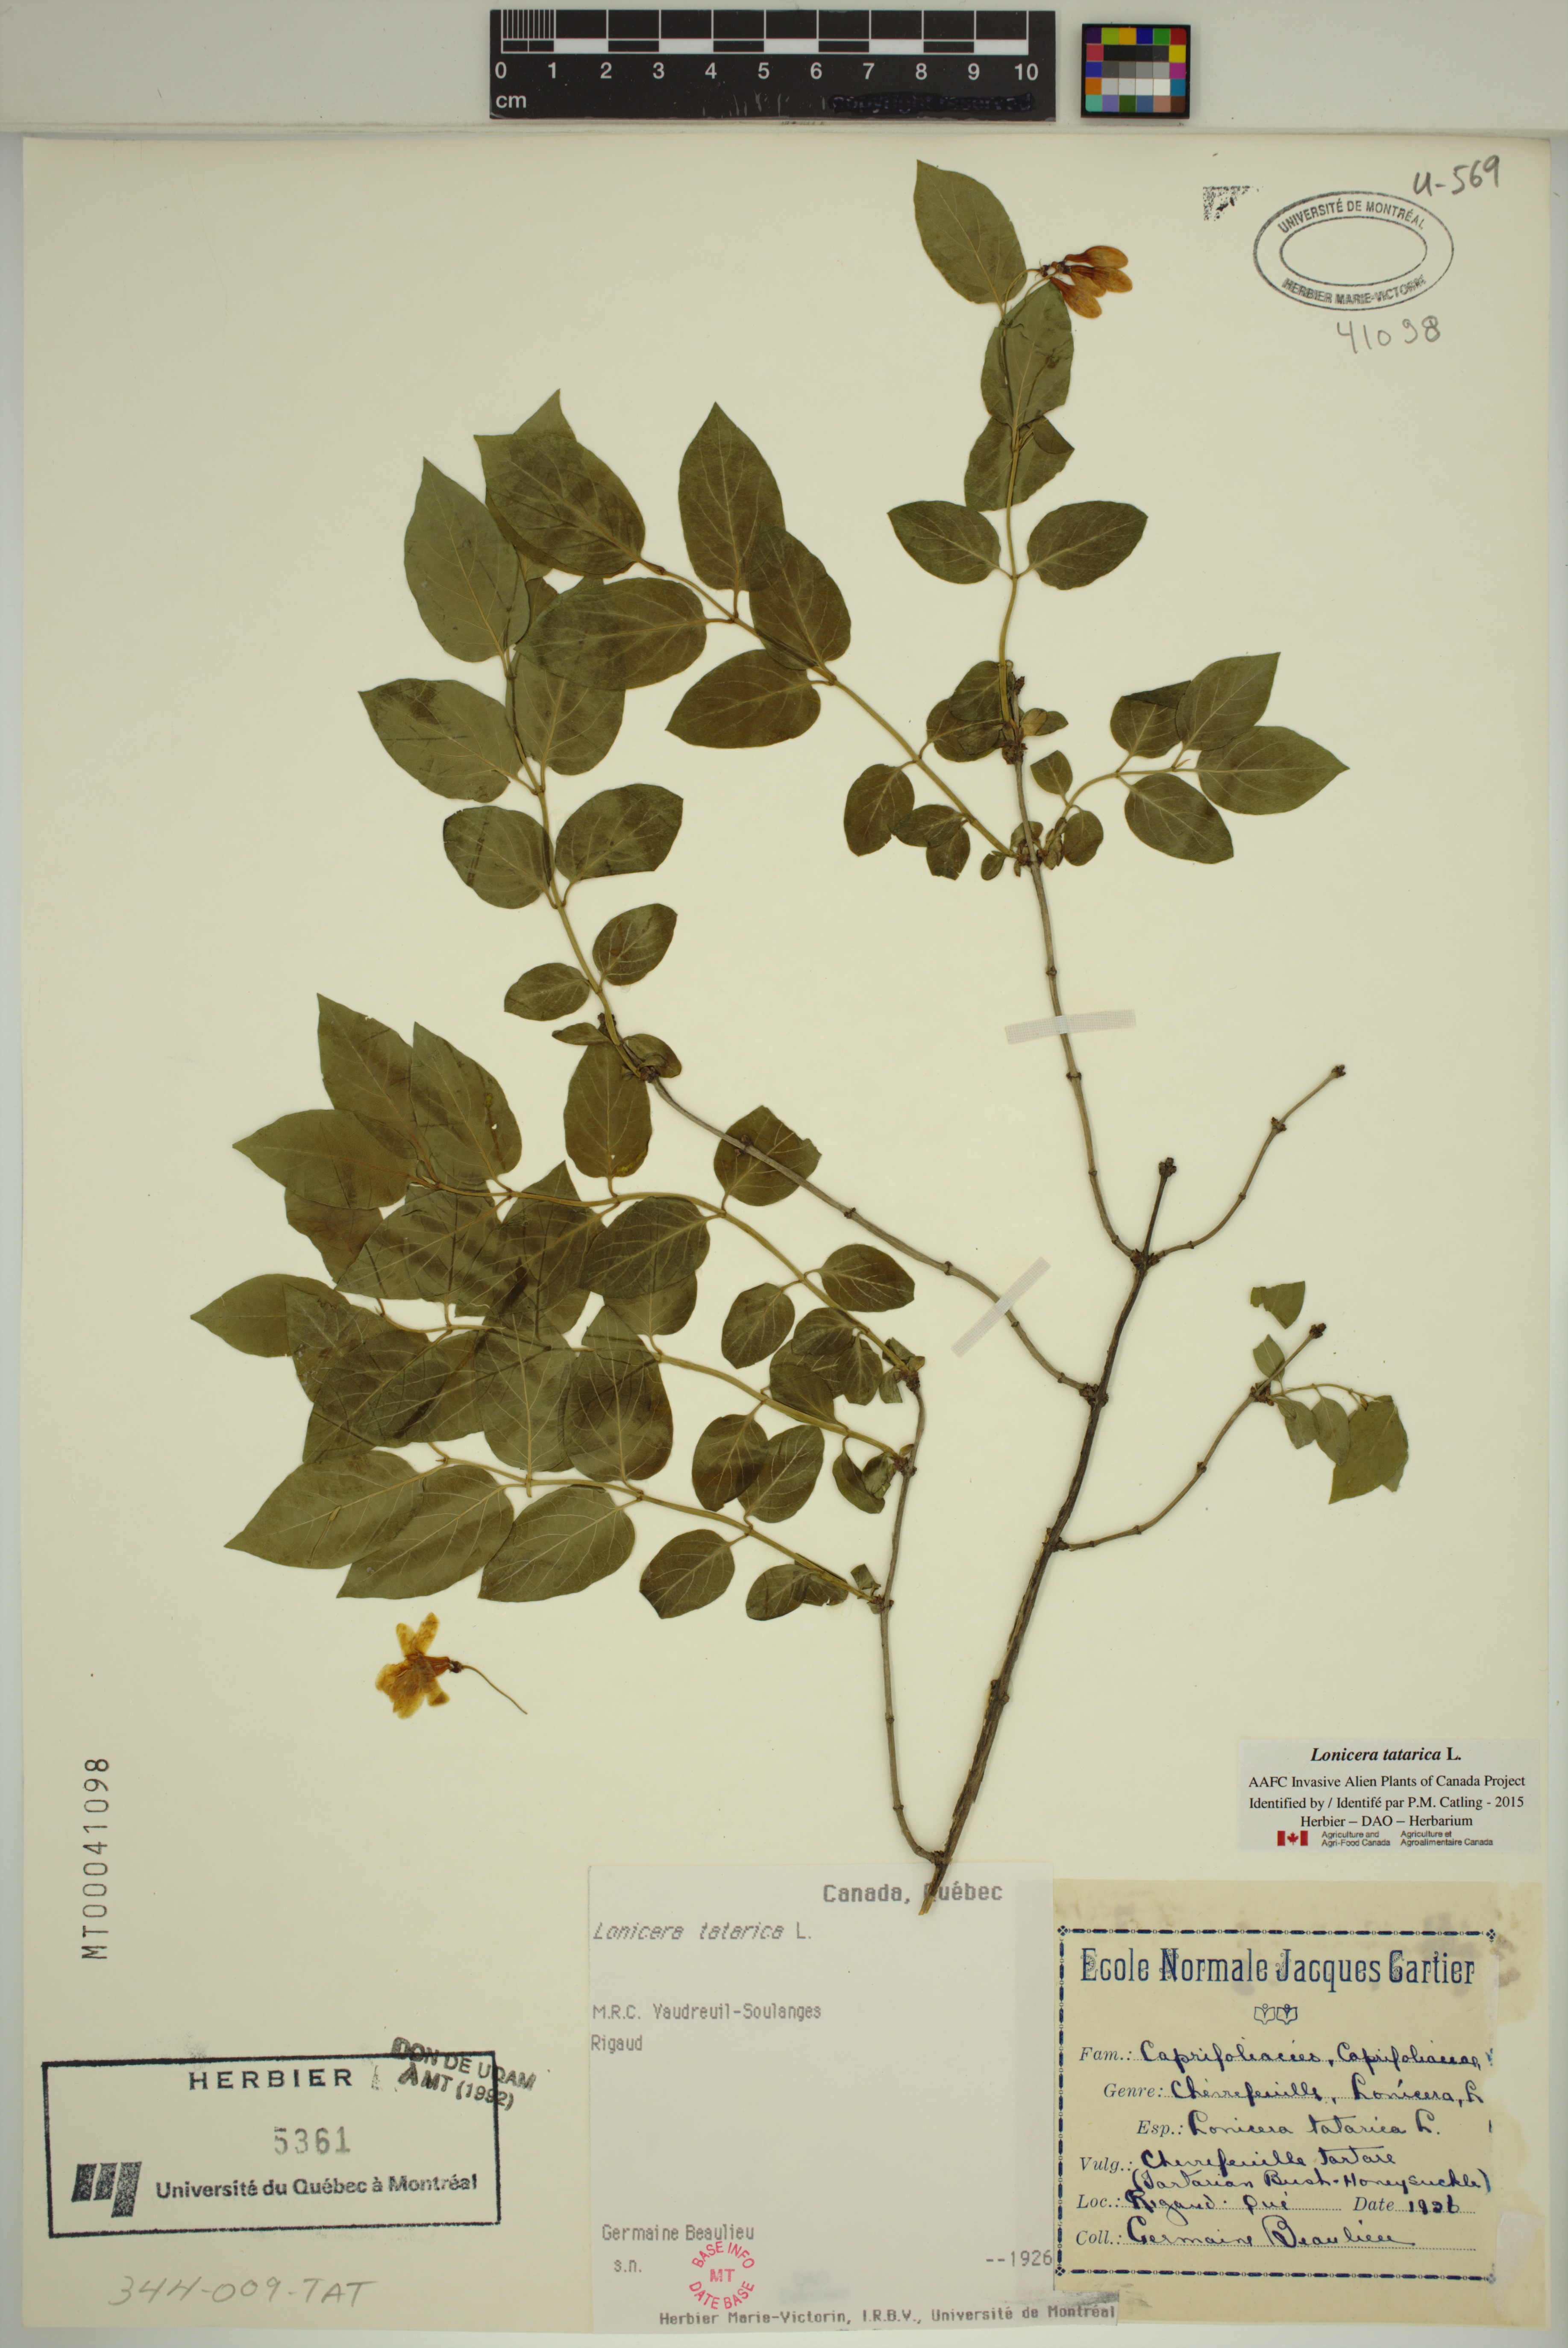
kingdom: Plantae
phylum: Tracheophyta
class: Magnoliopsida
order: Dipsacales
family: Caprifoliaceae
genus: Lonicera
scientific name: Lonicera tatarica
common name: Tatarian honeysuckle
